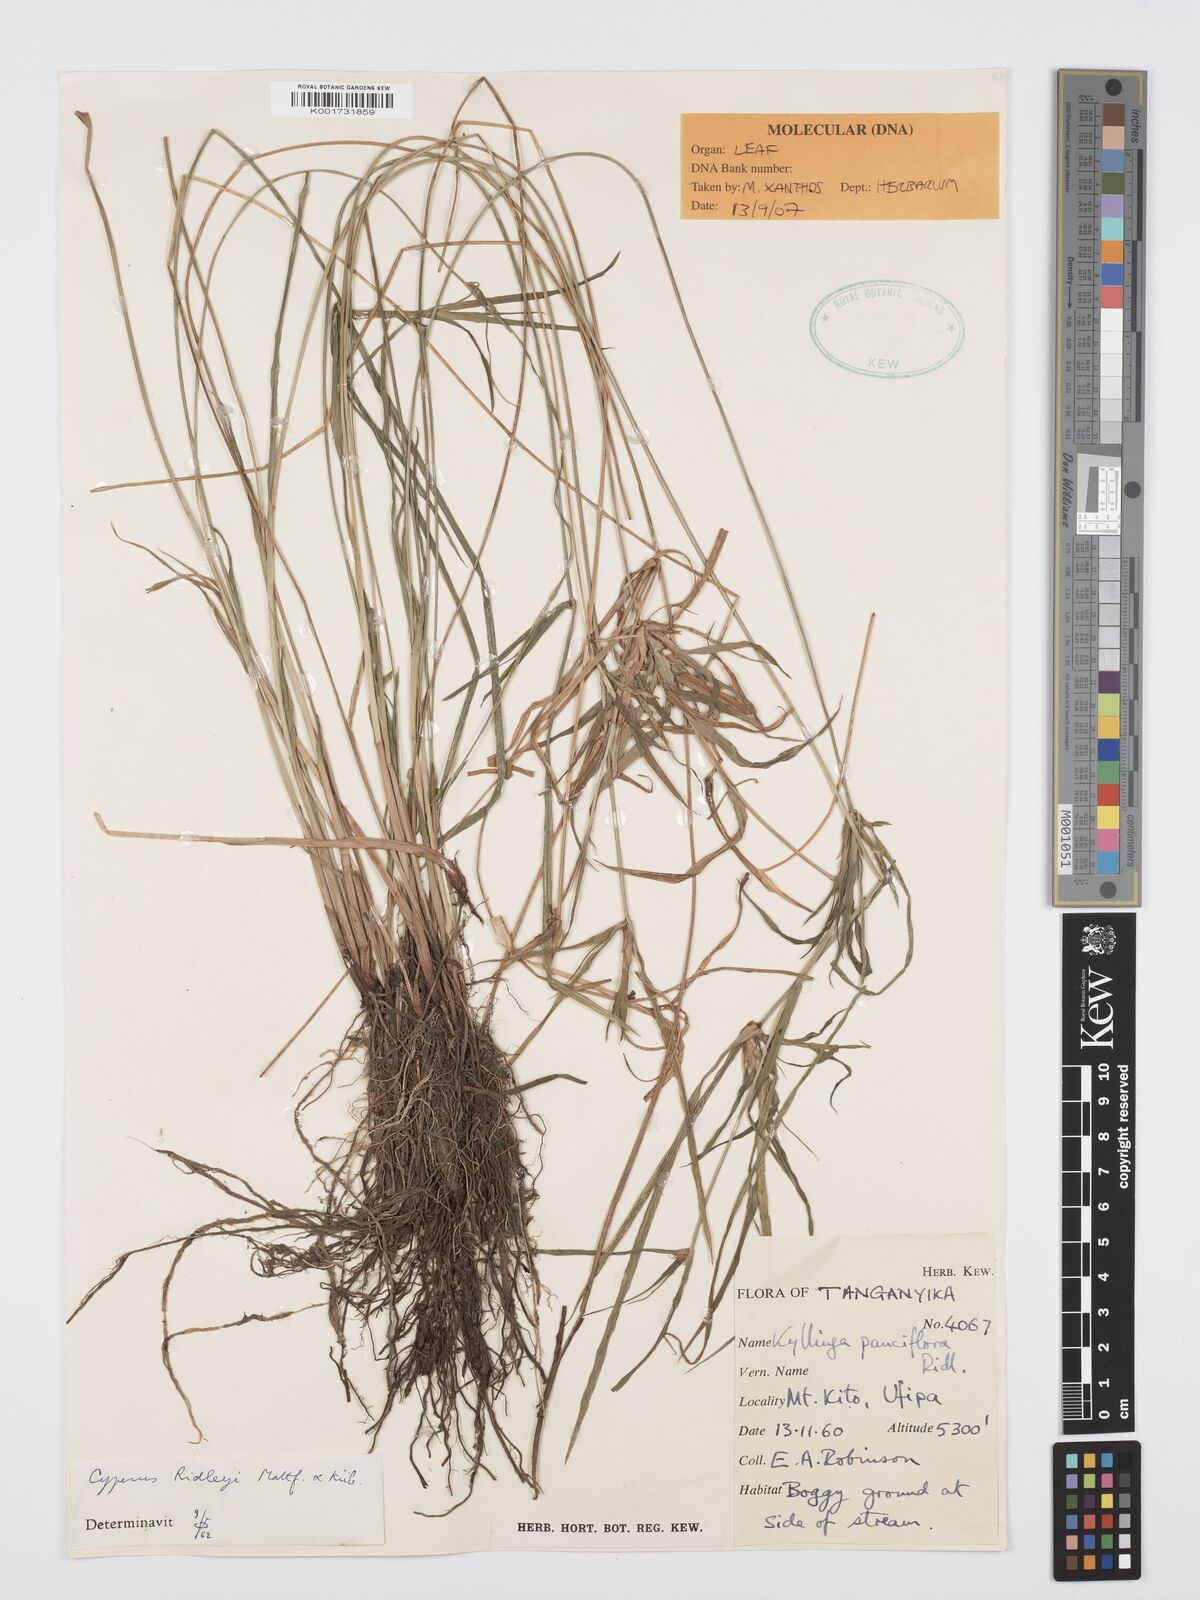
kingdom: Plantae
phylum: Tracheophyta
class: Liliopsida
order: Poales
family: Cyperaceae
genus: Cyperus
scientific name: Cyperus
